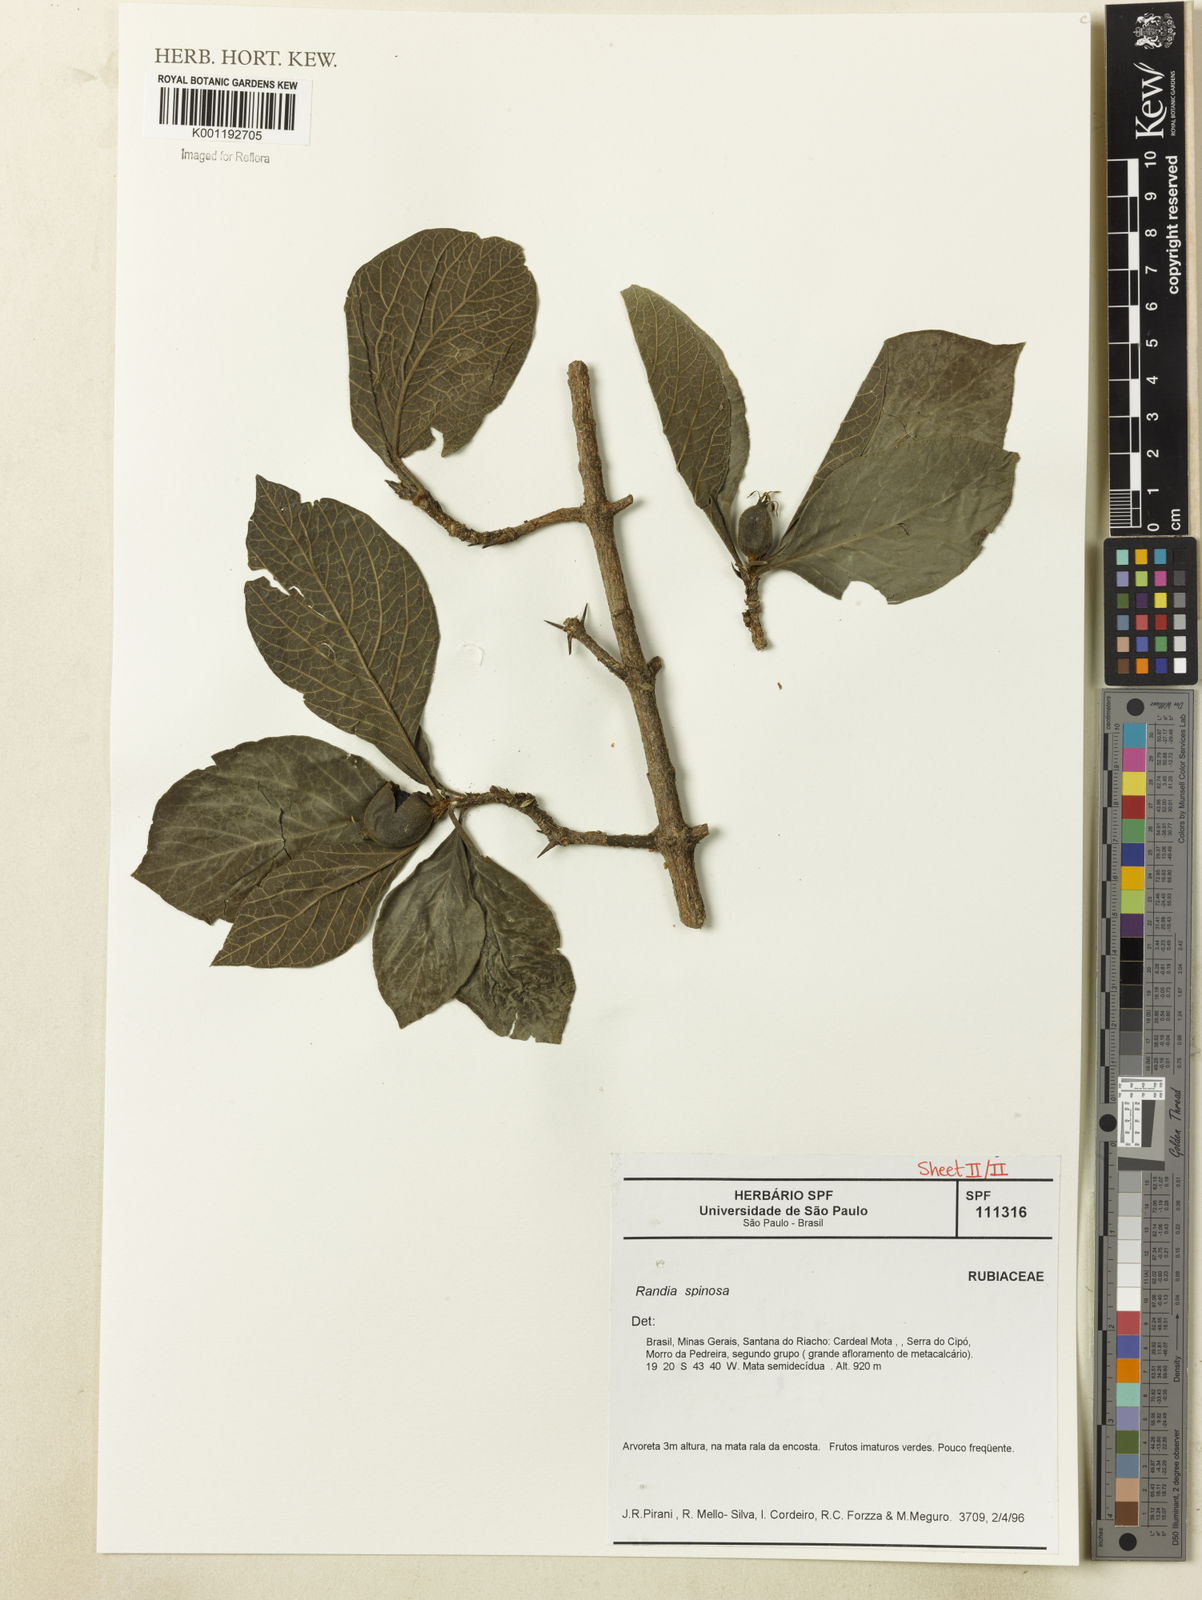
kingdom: Plantae
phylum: Tracheophyta
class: Magnoliopsida
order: Gentianales
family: Rubiaceae
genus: Randia
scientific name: Randia nitida
